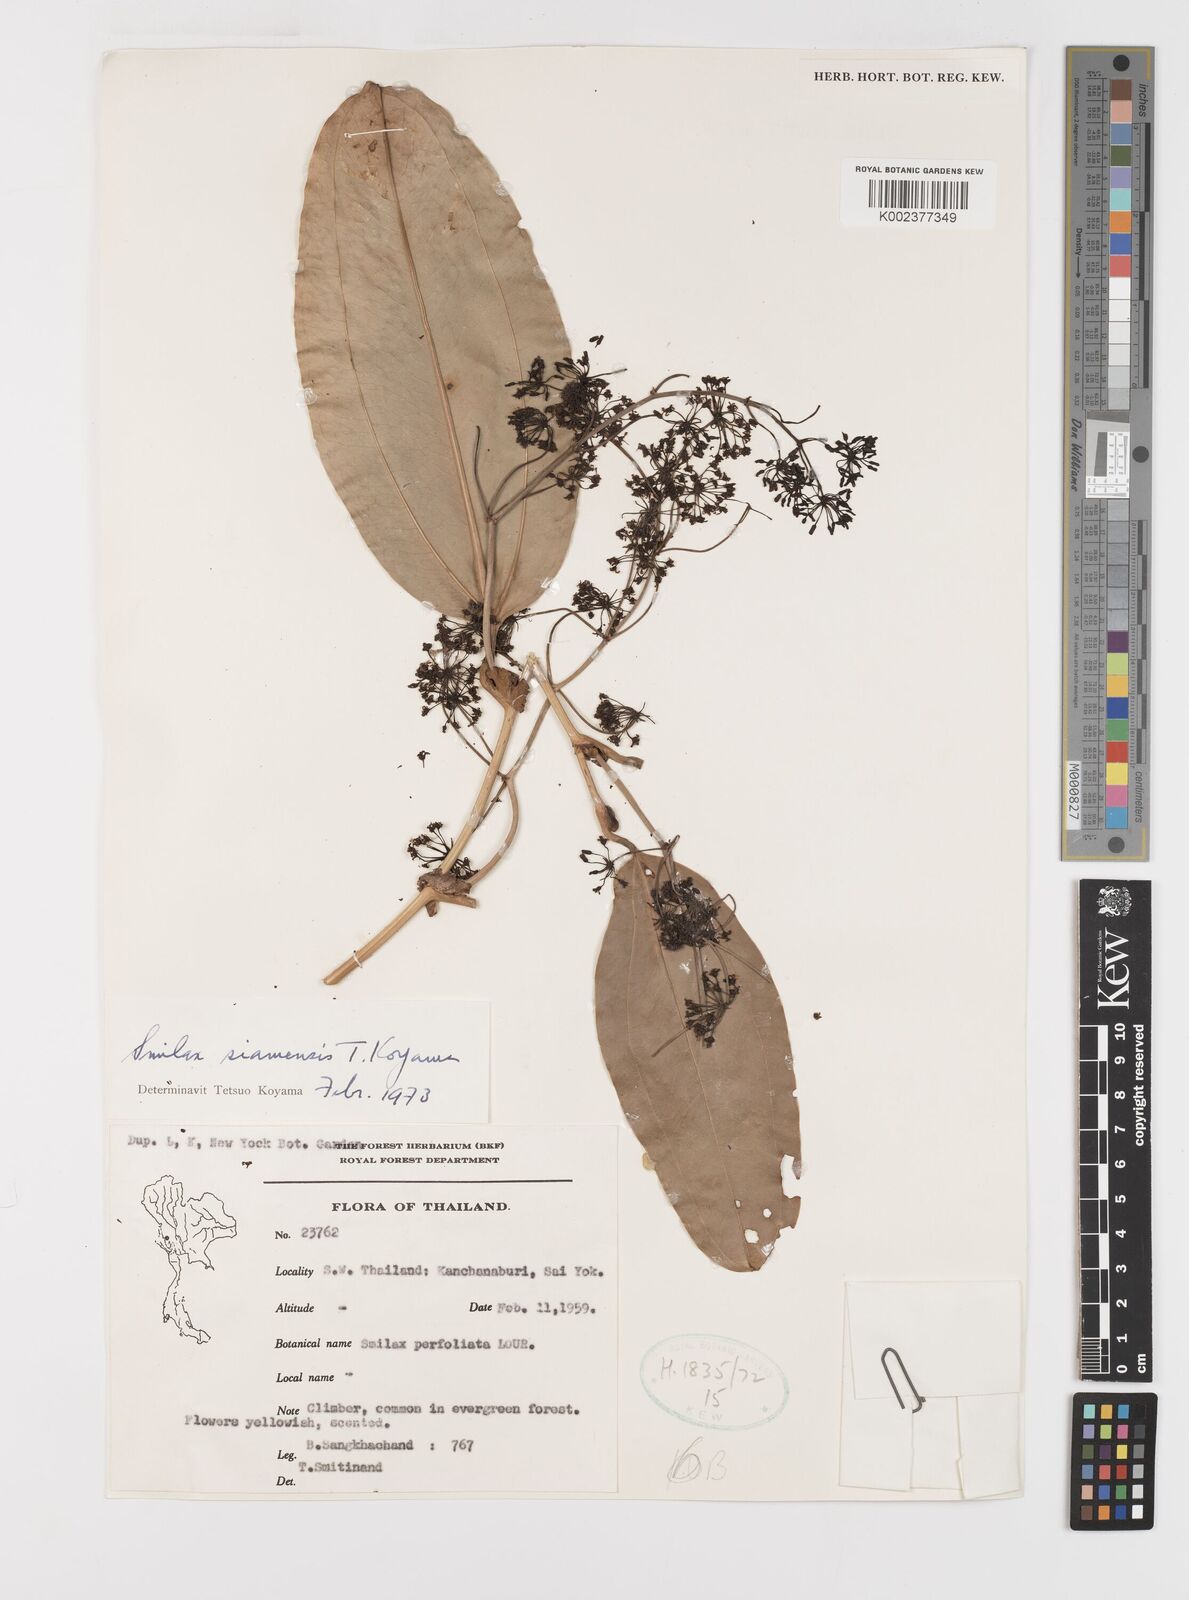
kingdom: Plantae
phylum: Tracheophyta
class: Liliopsida
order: Liliales
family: Smilacaceae
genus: Smilax
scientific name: Smilax prolifera
